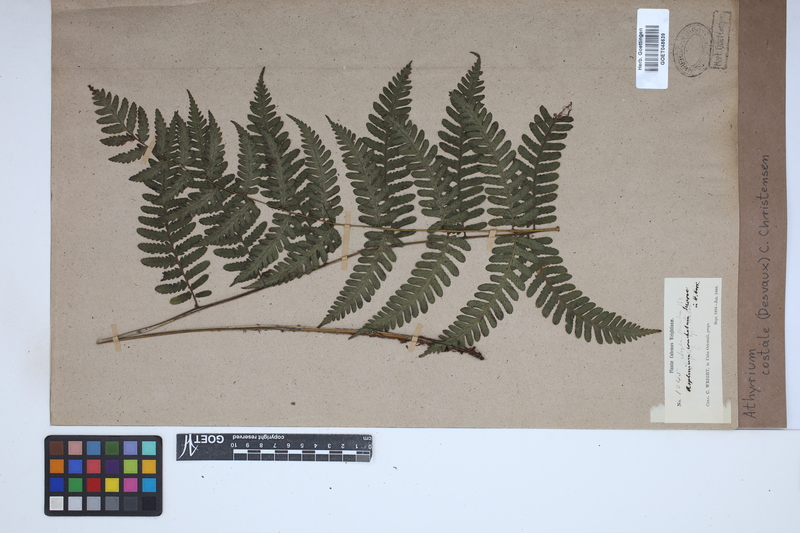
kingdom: Plantae
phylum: Tracheophyta
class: Polypodiopsida
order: Polypodiales
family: Athyriaceae
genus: Diplazium
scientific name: Diplazium pectinatum
